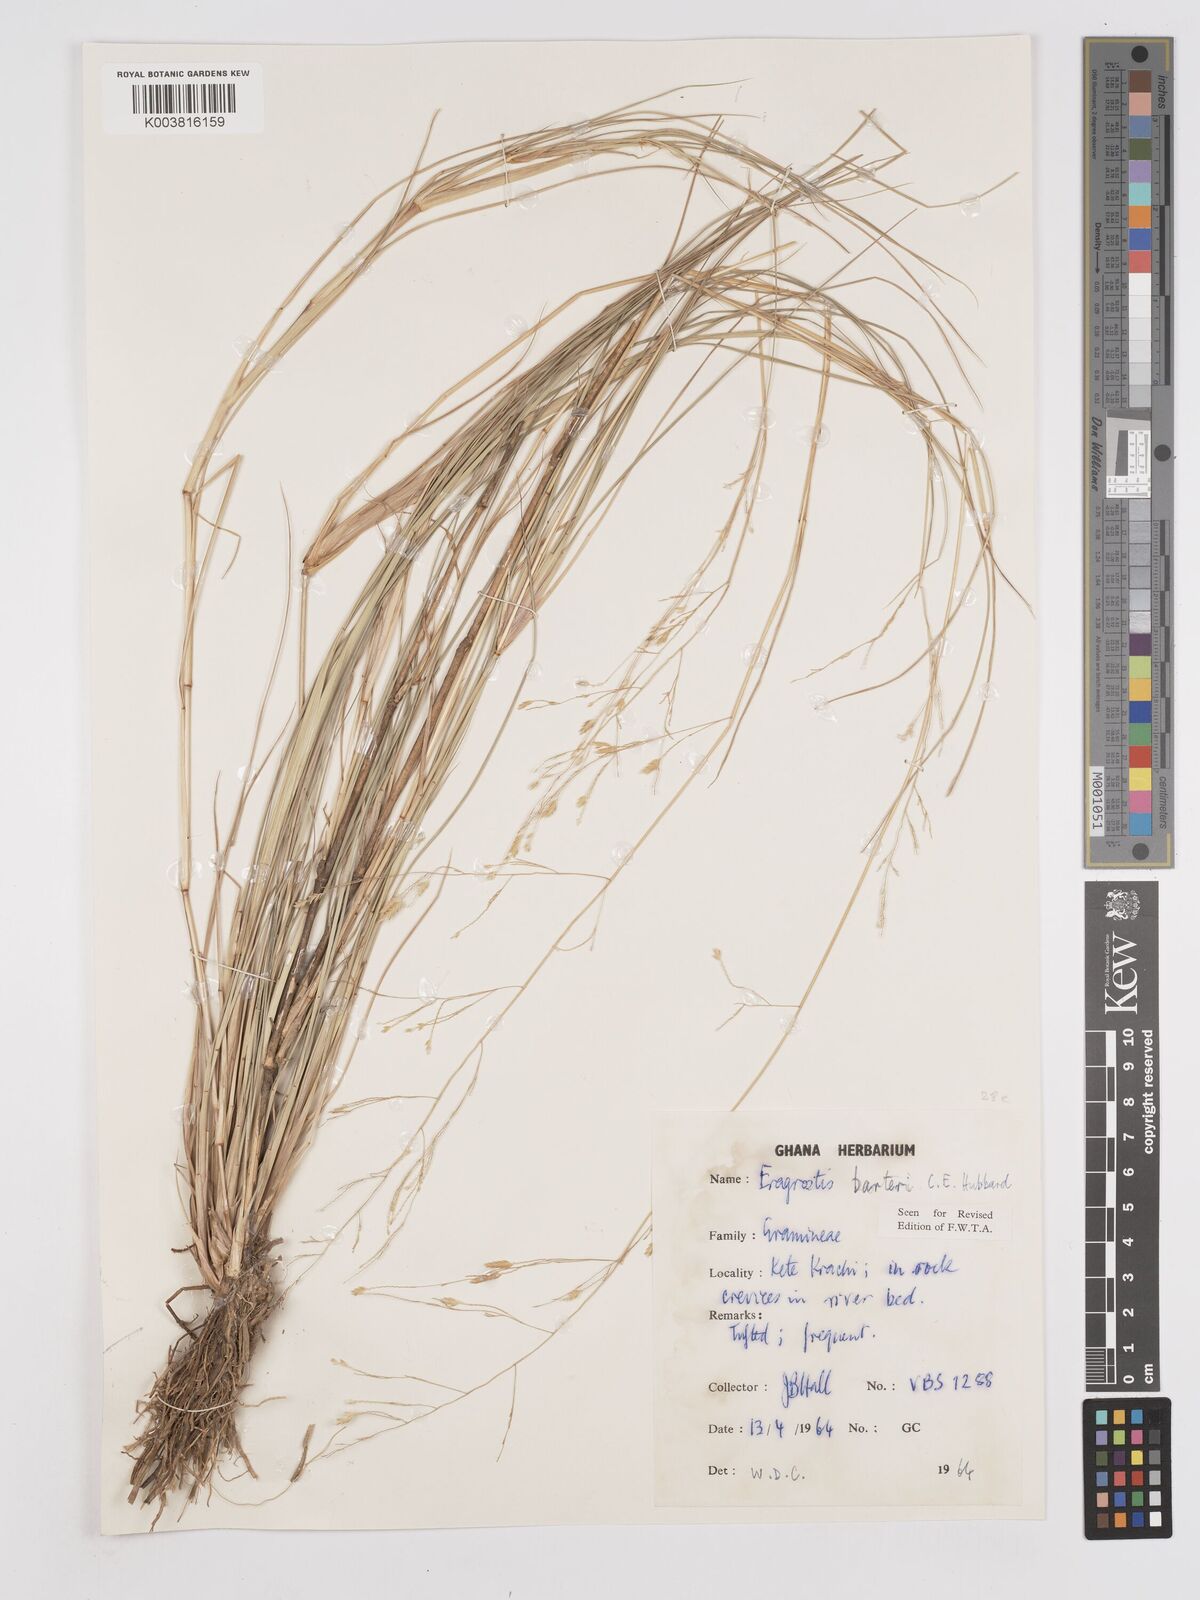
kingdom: Plantae
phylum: Tracheophyta
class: Liliopsida
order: Poales
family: Poaceae
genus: Eragrostis
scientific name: Eragrostis barteri
